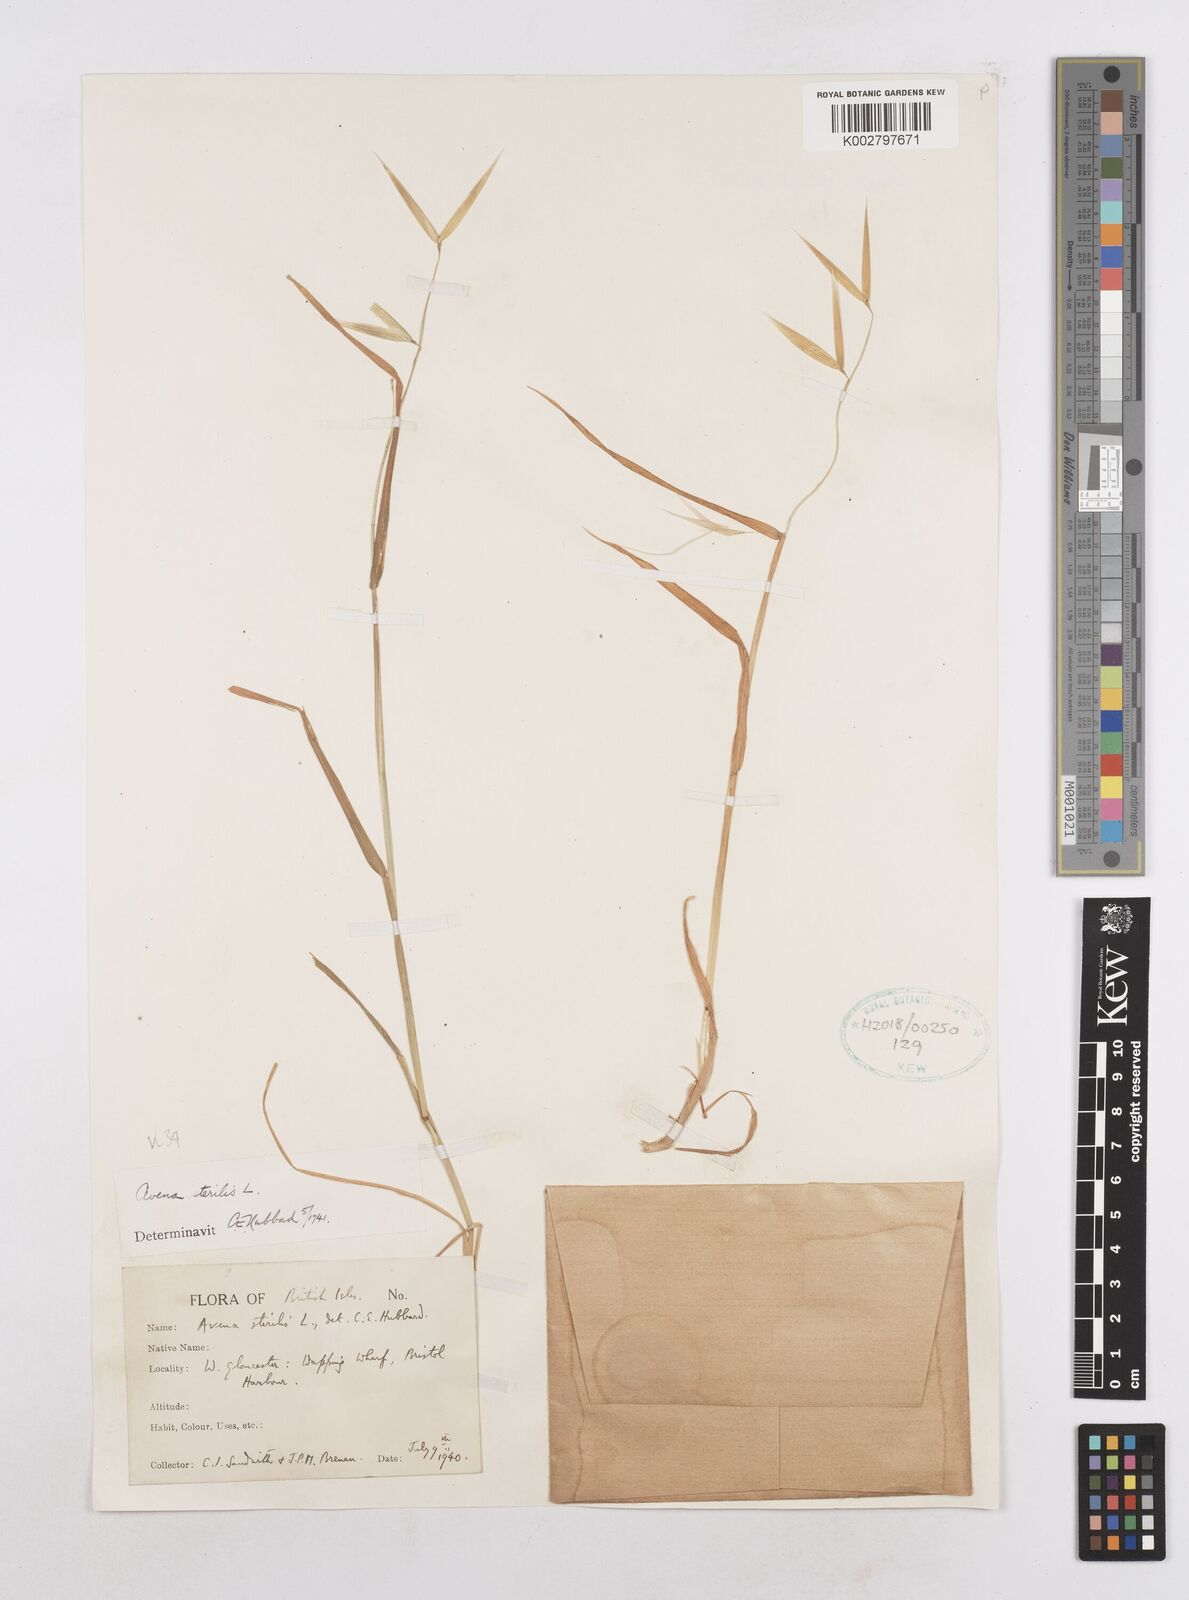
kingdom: Plantae
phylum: Tracheophyta
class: Liliopsida
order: Poales
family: Poaceae
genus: Avena
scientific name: Avena sterilis
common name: Animated oat
